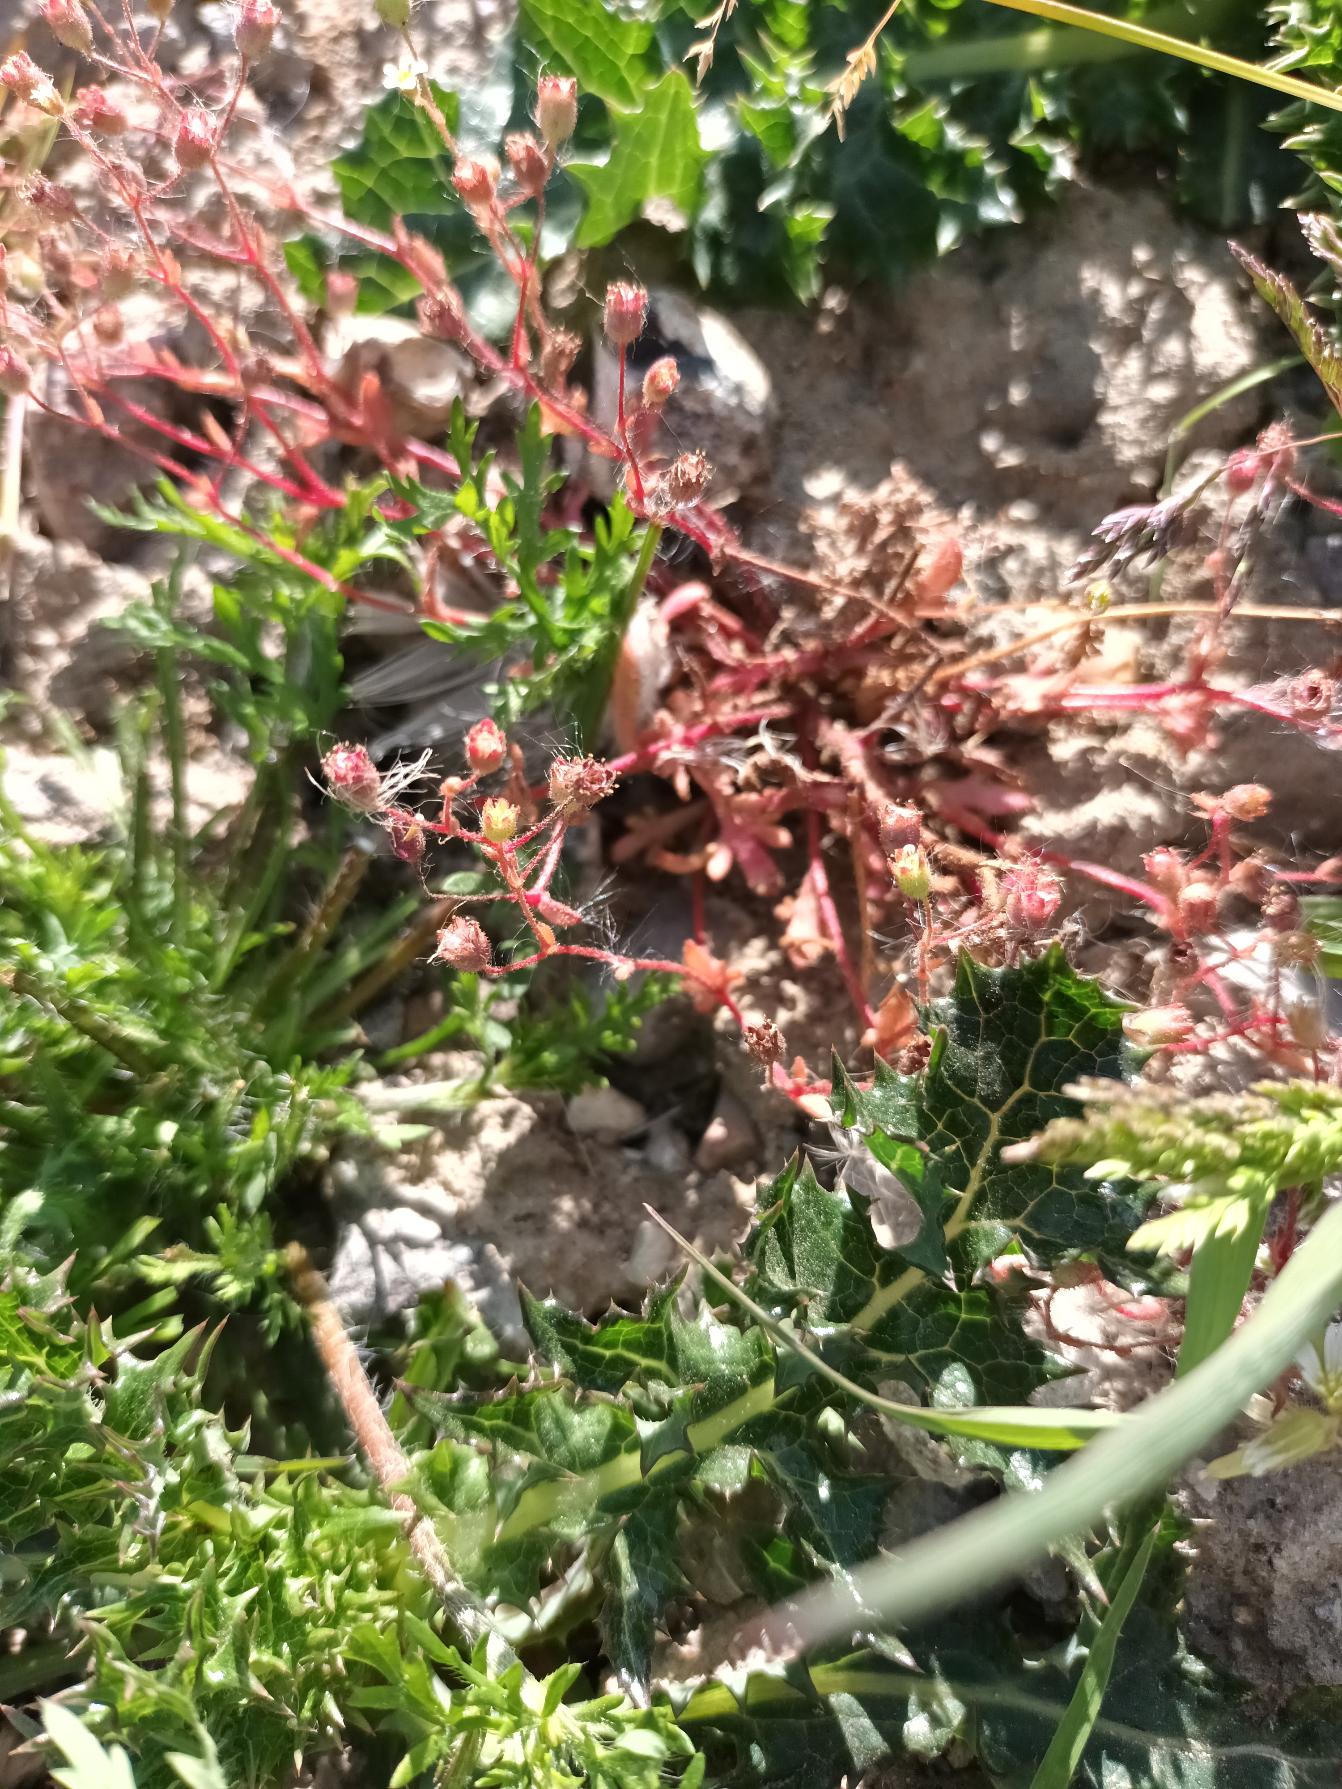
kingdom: Plantae
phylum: Tracheophyta
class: Magnoliopsida
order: Saxifragales
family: Saxifragaceae
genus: Saxifraga
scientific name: Saxifraga tridactylites
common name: Trekløft-stenbræk
